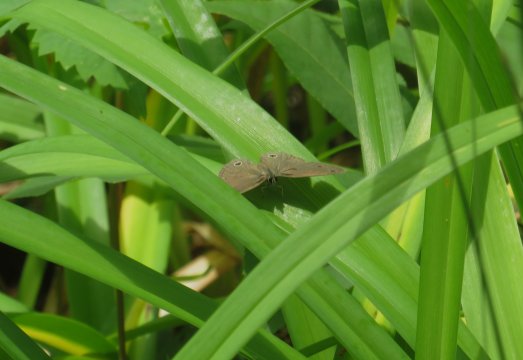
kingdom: Animalia
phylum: Arthropoda
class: Insecta
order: Lepidoptera
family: Nymphalidae
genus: Euptychia
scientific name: Euptychia cymela
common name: Little Wood Satyr
